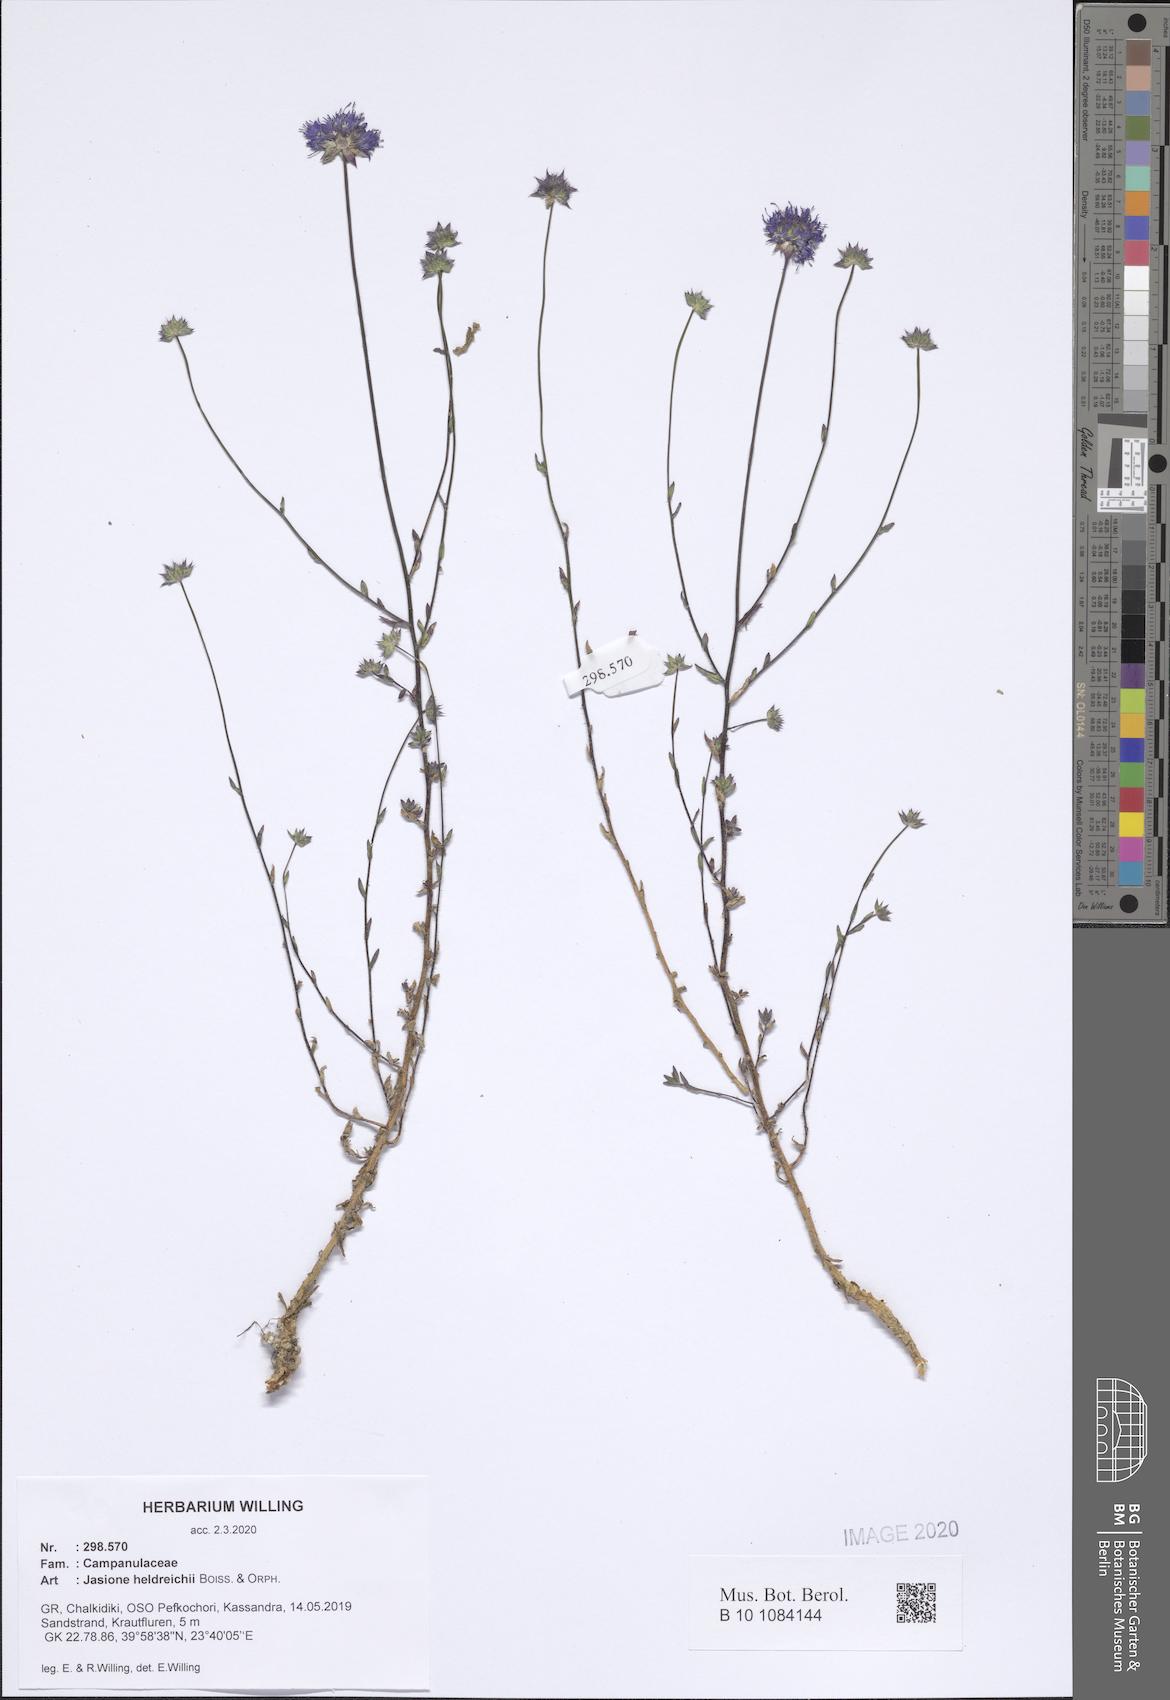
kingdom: Plantae
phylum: Tracheophyta
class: Magnoliopsida
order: Asterales
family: Campanulaceae
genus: Jasione
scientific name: Jasione heldreichii
